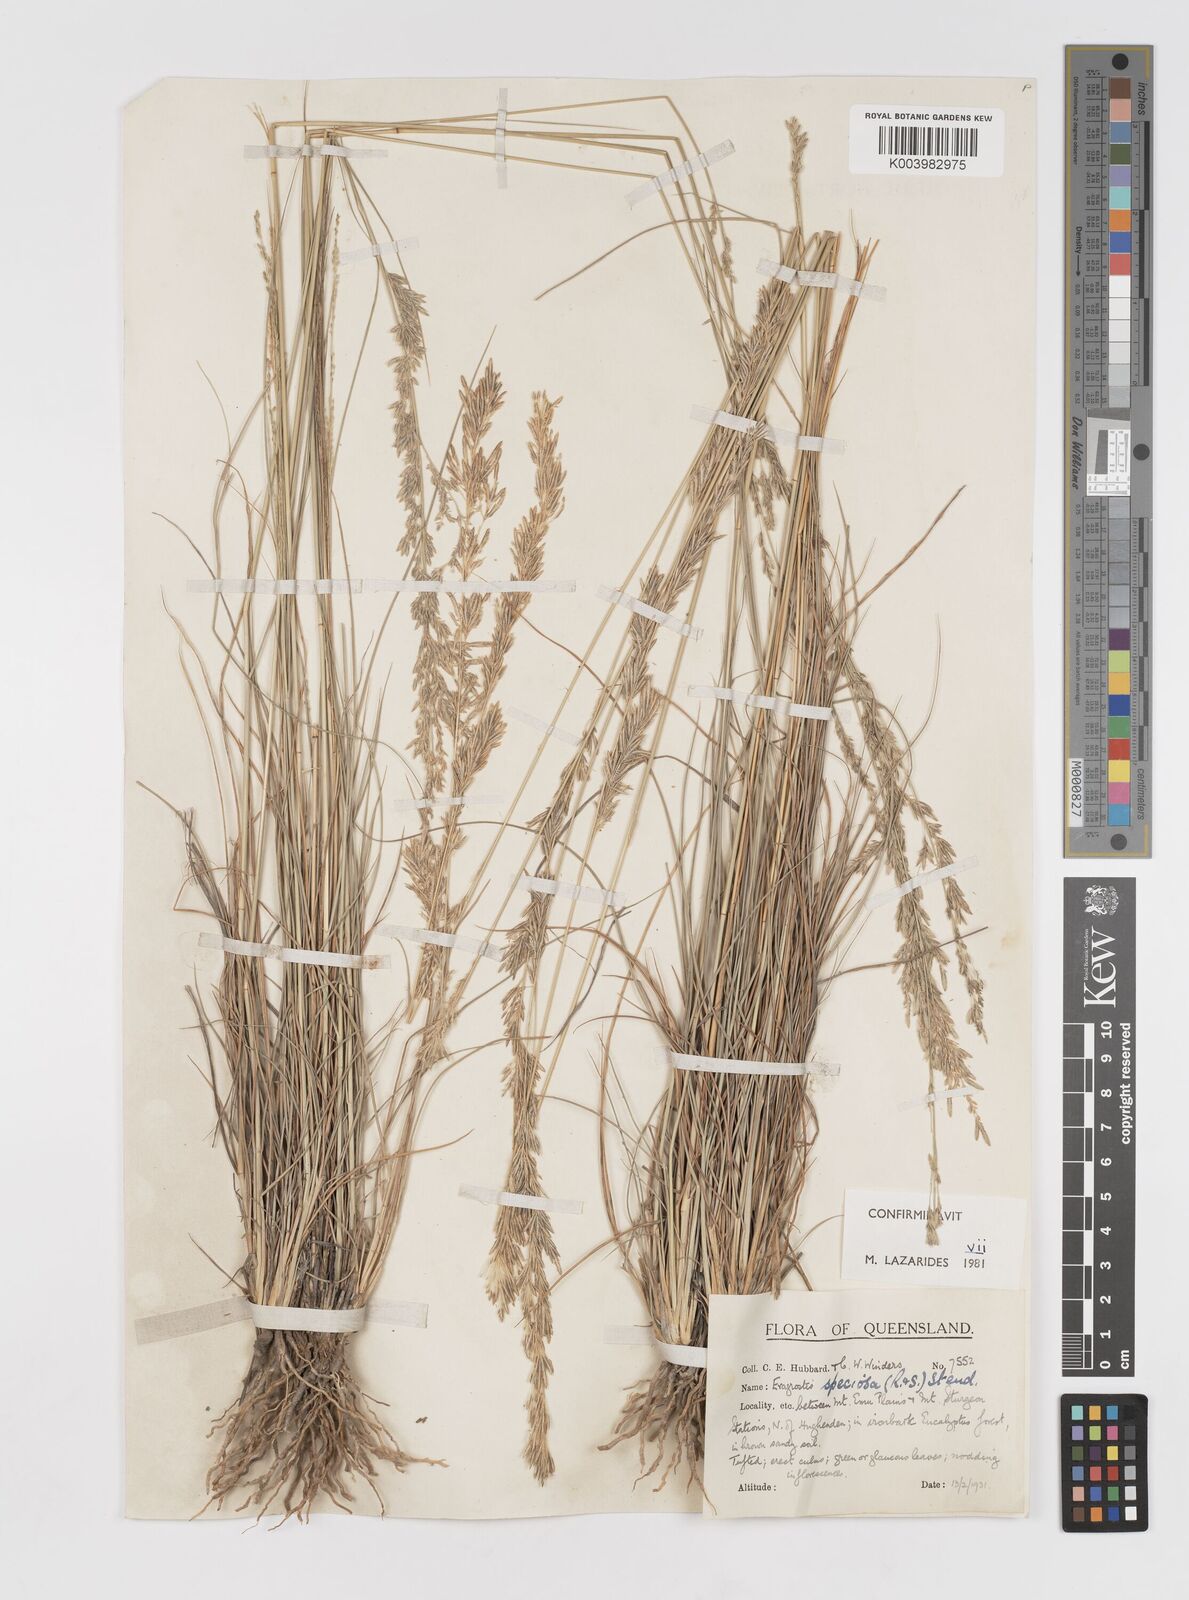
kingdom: Plantae
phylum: Tracheophyta
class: Liliopsida
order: Poales
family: Poaceae
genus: Eragrostis
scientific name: Eragrostis speciosa
